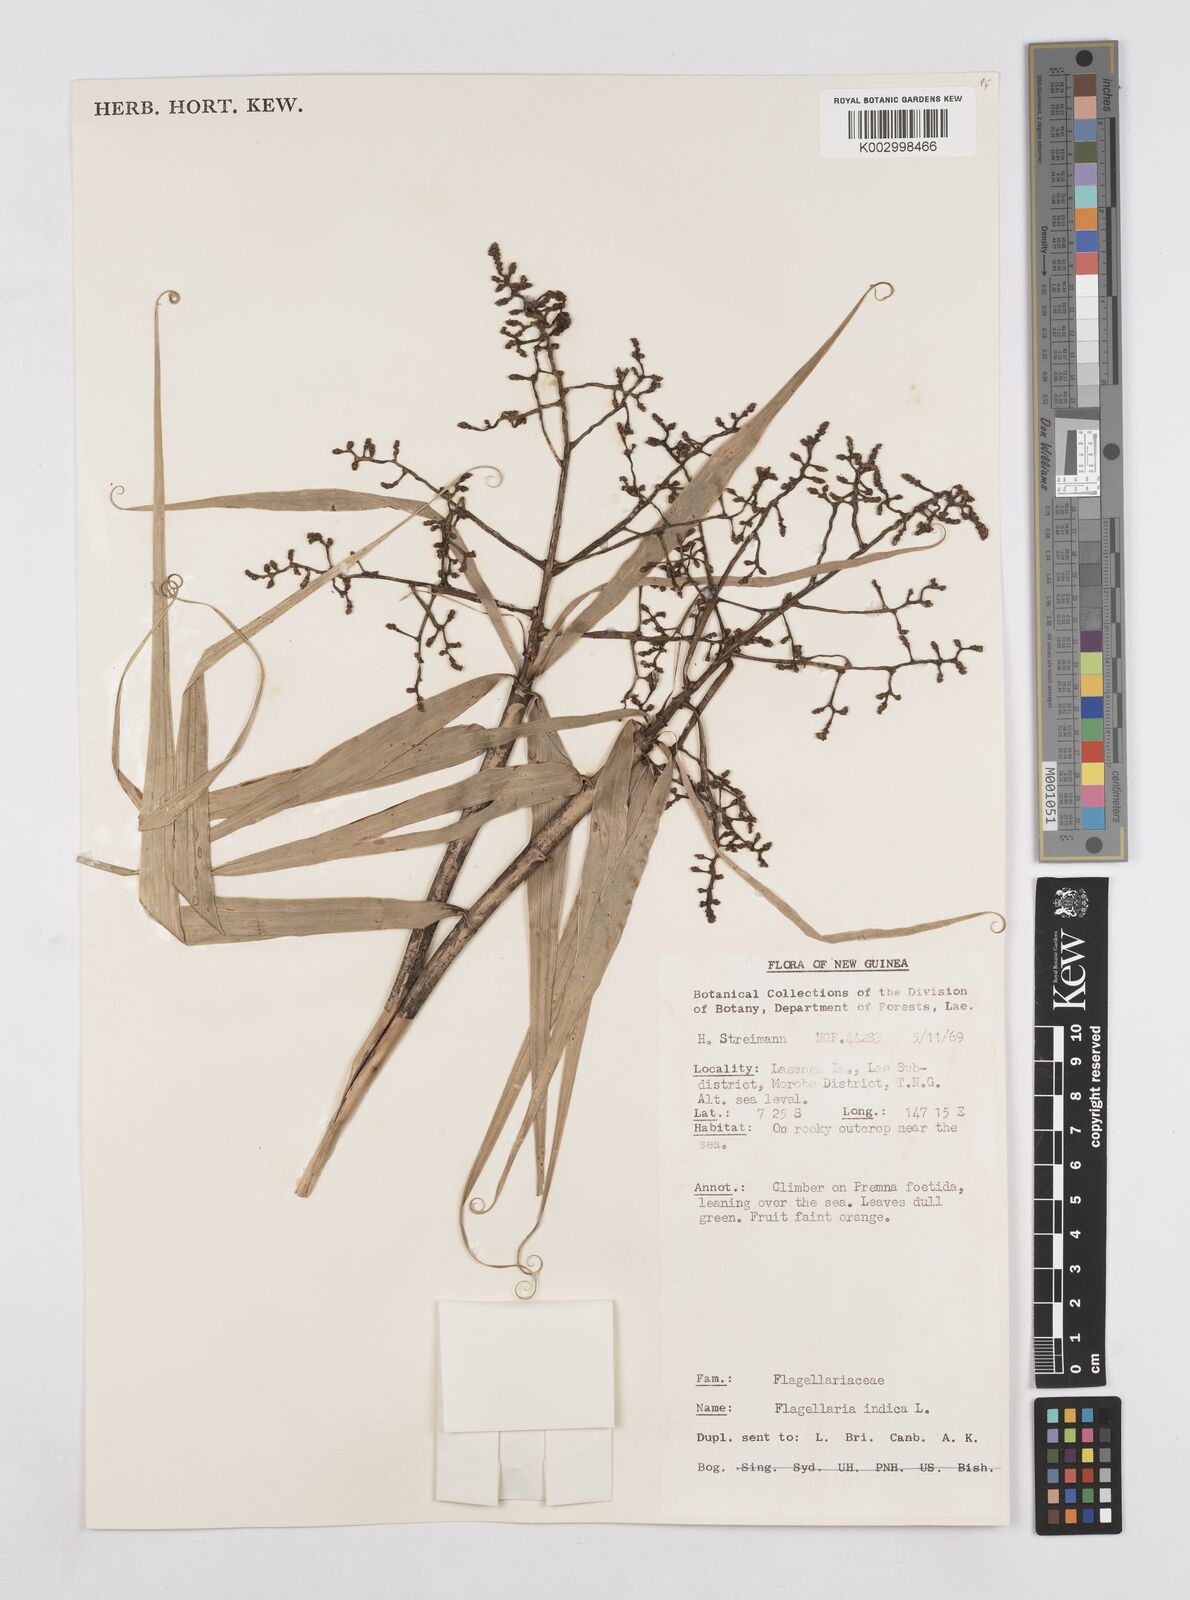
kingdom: Plantae
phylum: Tracheophyta
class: Liliopsida
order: Poales
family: Flagellariaceae
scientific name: Flagellariaceae
